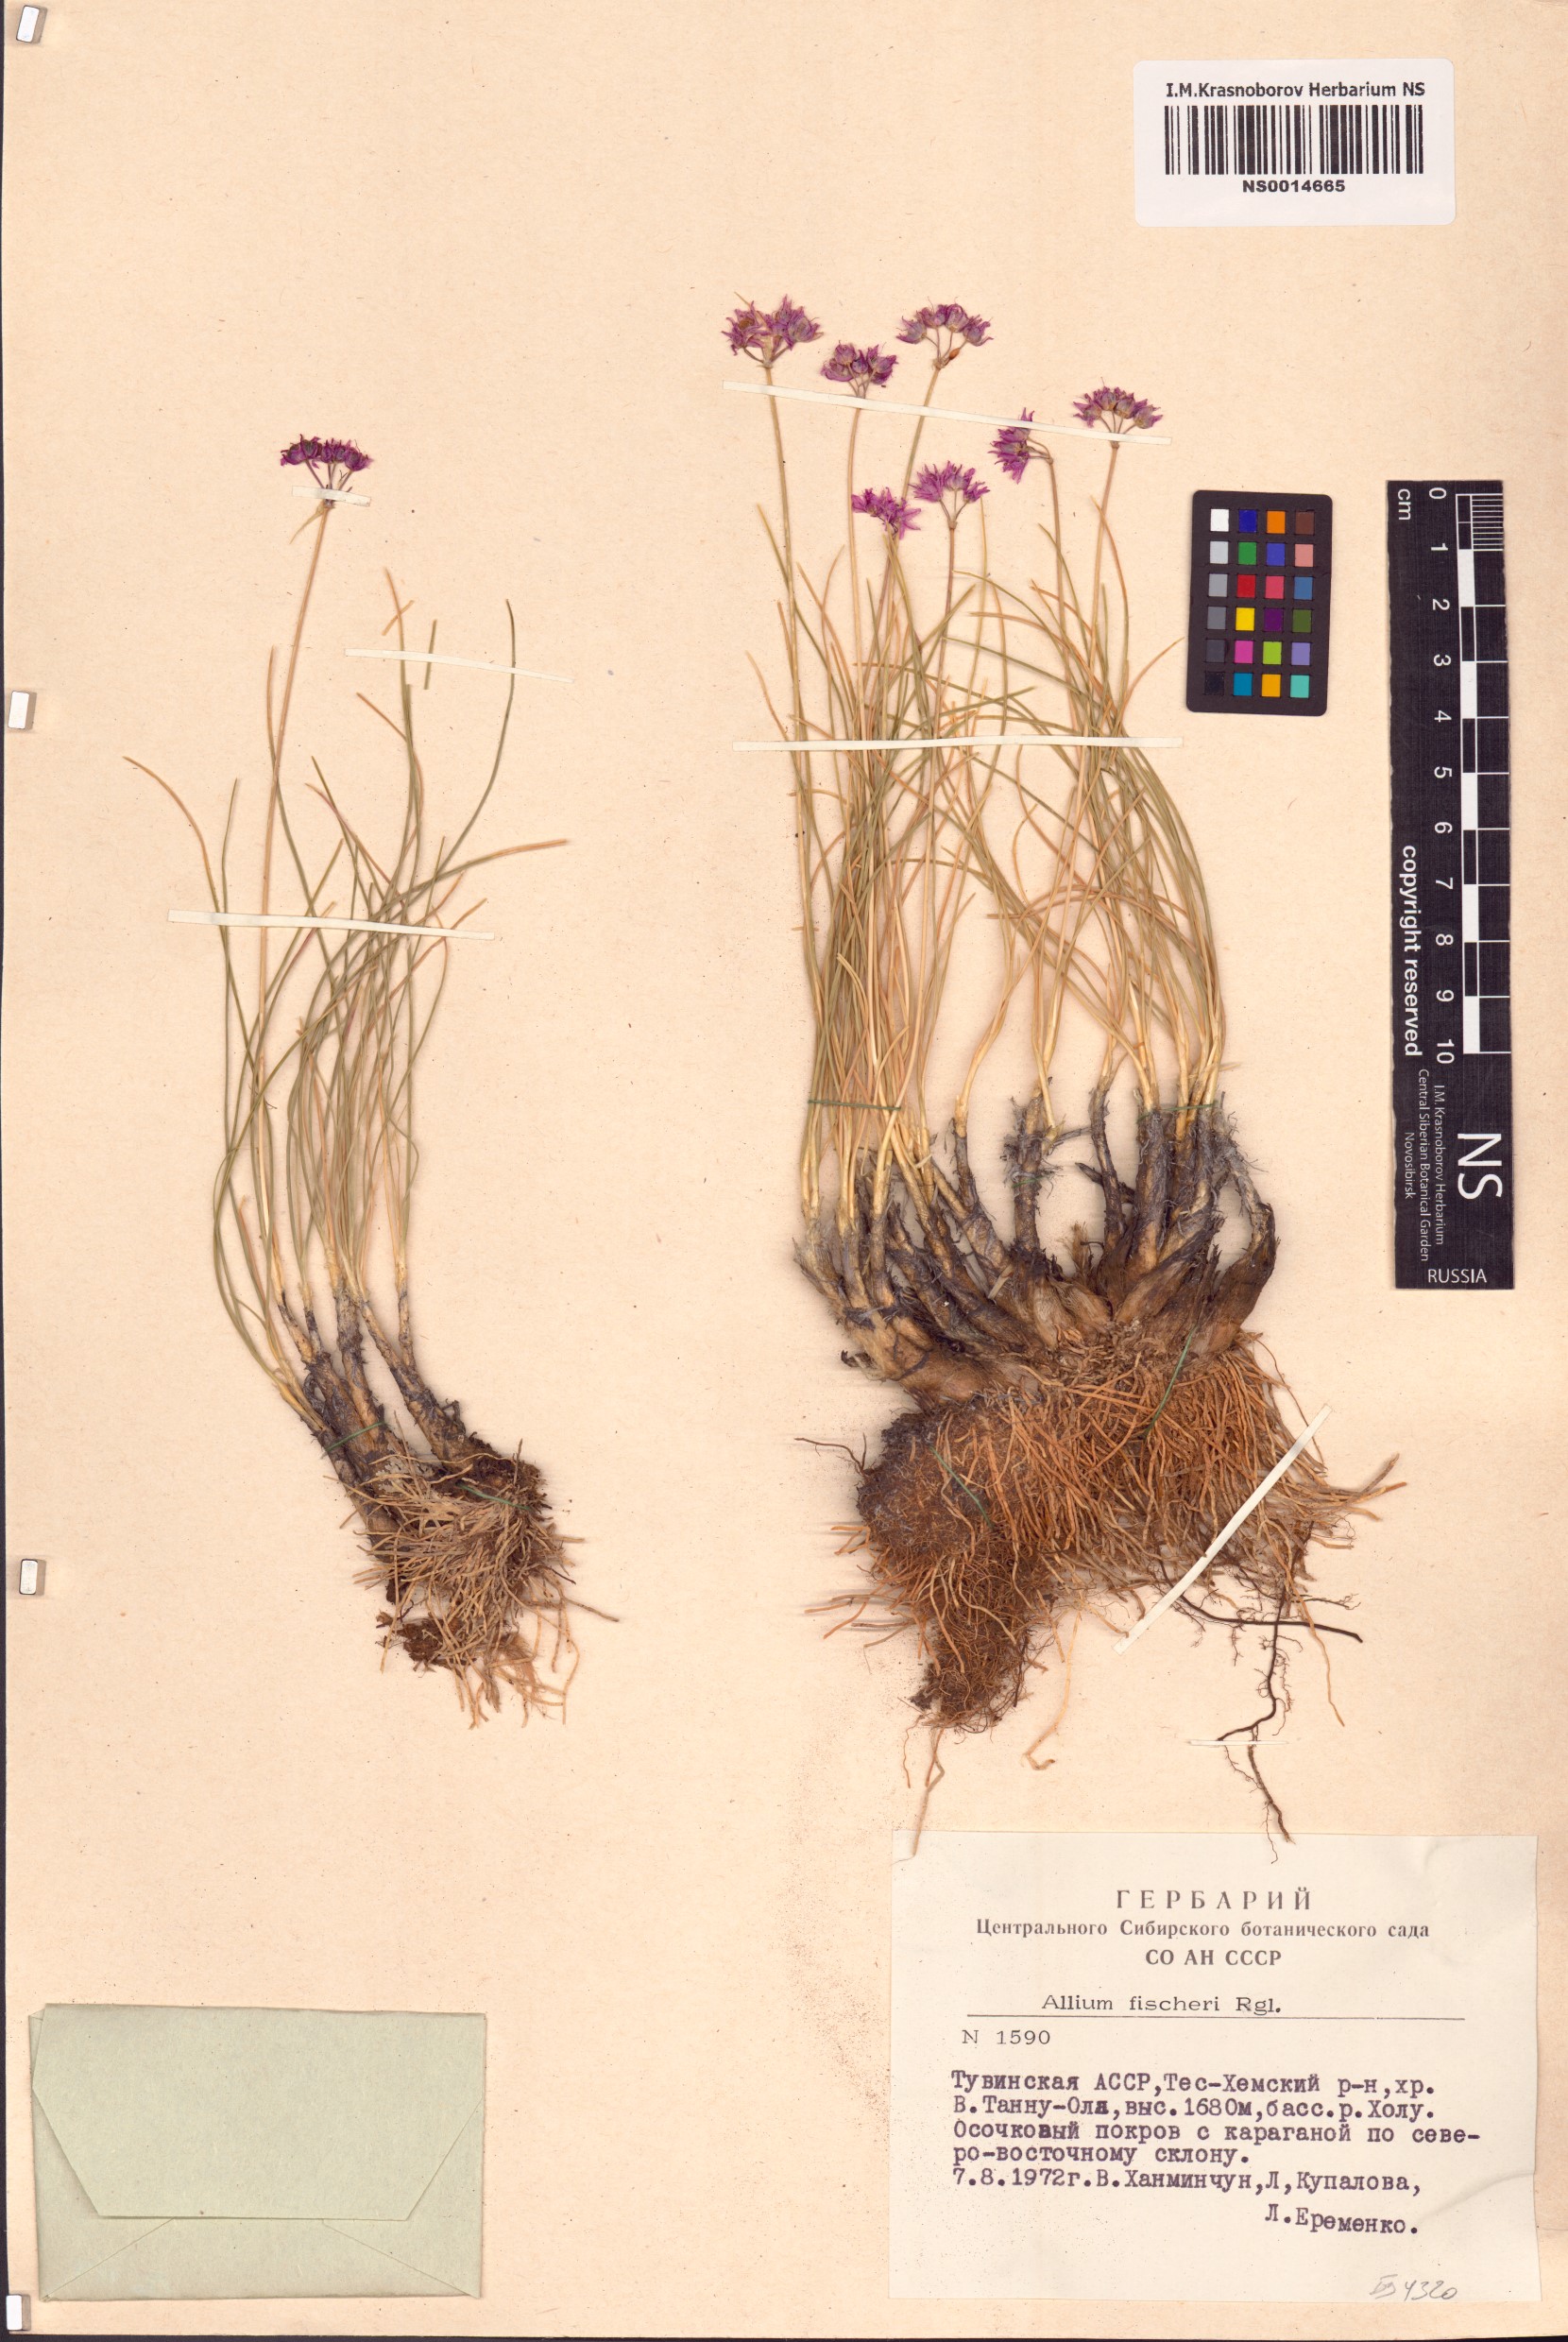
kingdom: Plantae
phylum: Tracheophyta
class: Liliopsida
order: Asparagales
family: Amaryllidaceae
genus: Allium
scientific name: Allium eduardi
